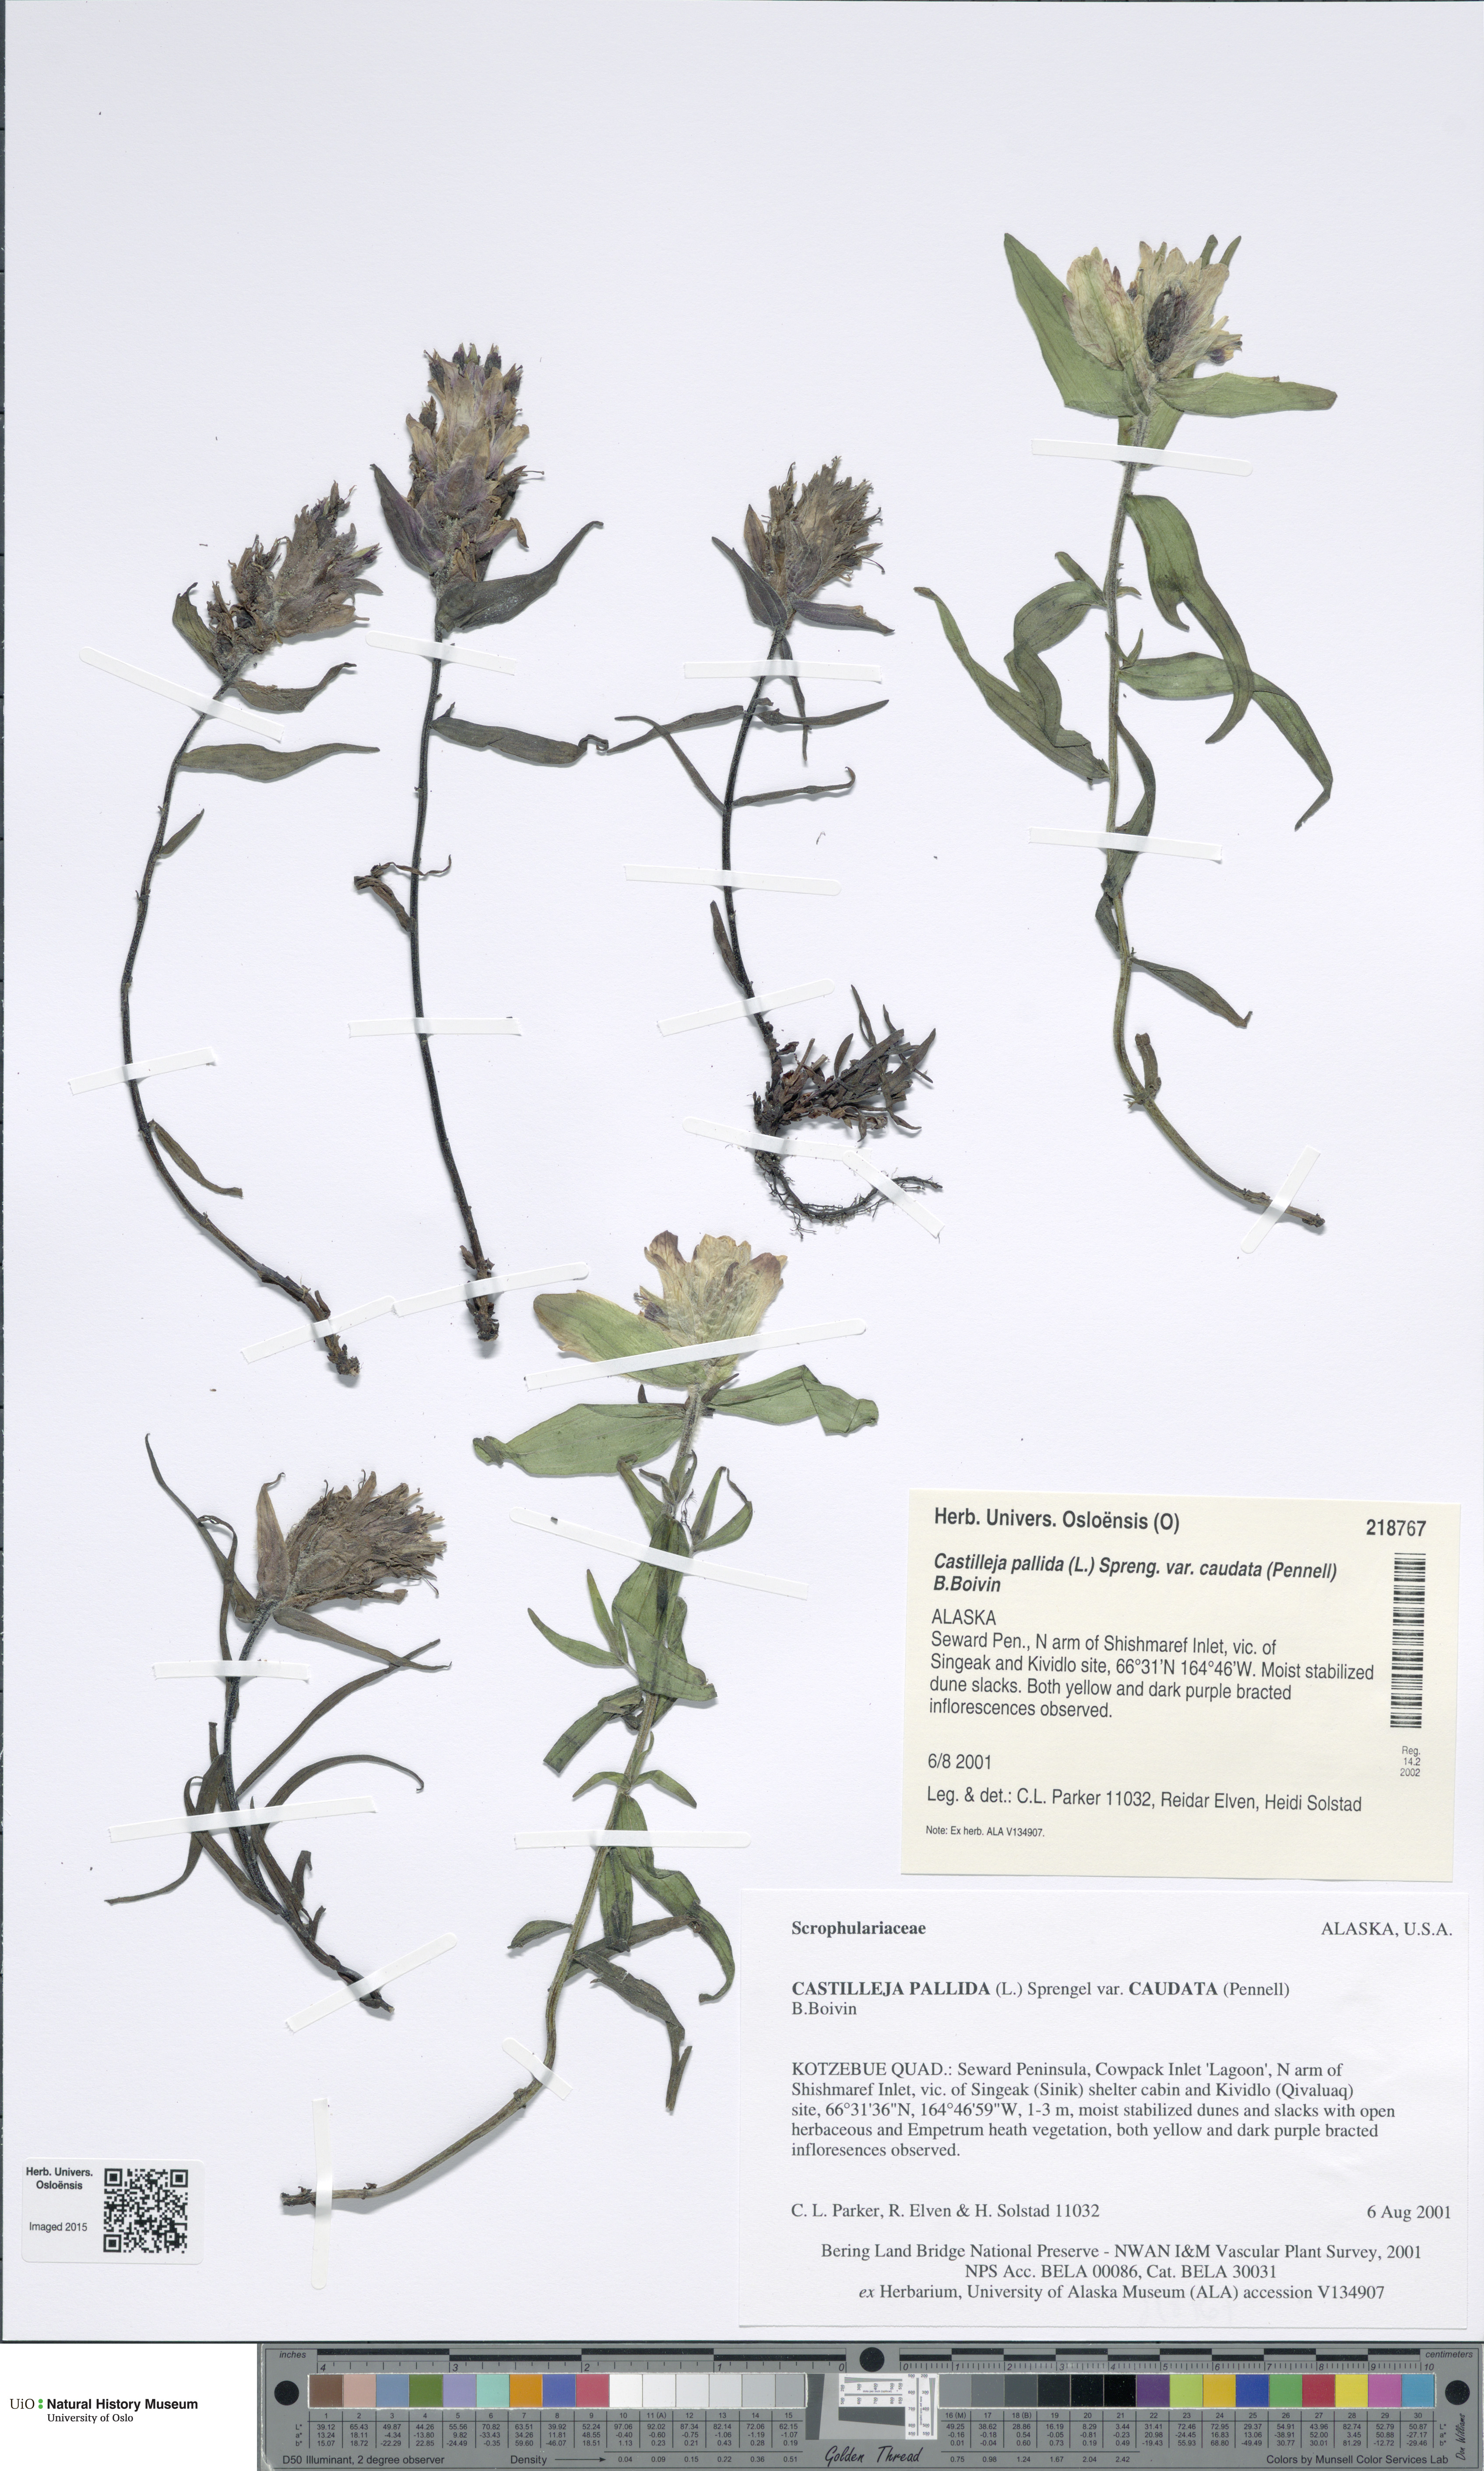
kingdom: Plantae
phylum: Tracheophyta
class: Magnoliopsida
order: Lamiales
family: Orobanchaceae
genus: Castilleja
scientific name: Castilleja pallida
